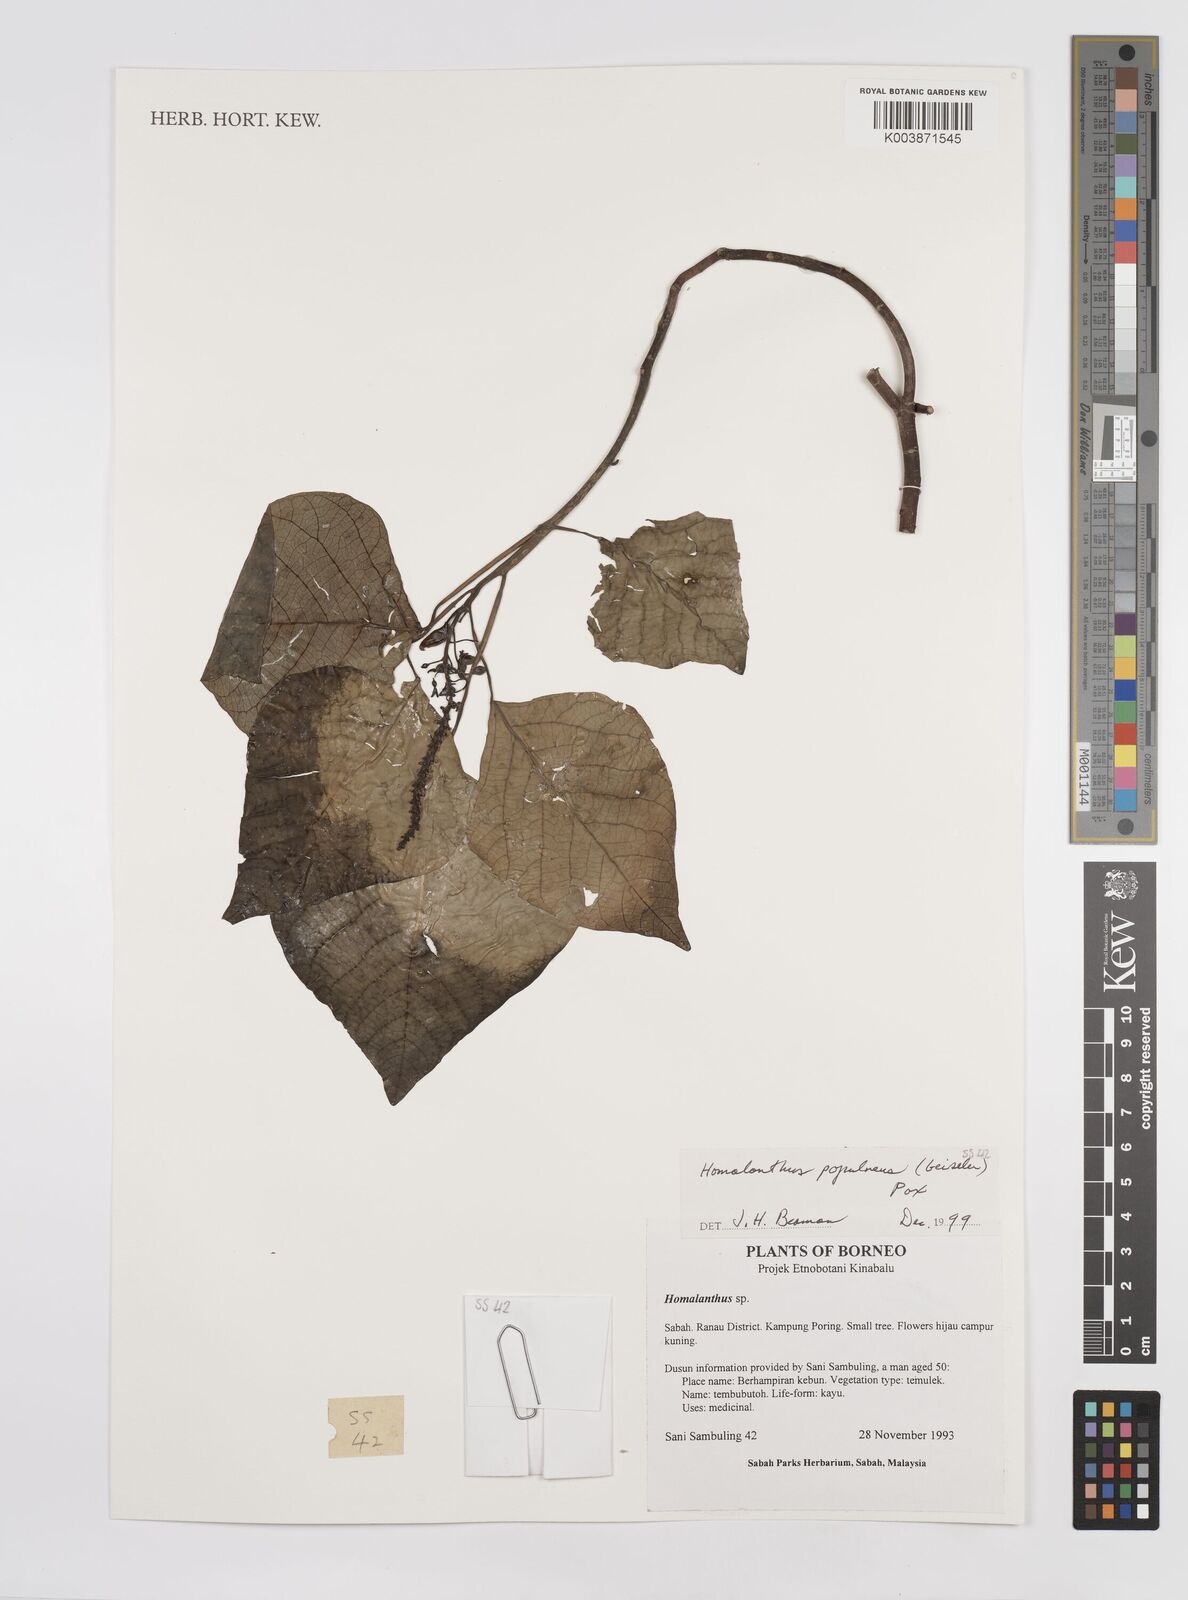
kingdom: Plantae
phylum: Tracheophyta
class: Magnoliopsida
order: Malpighiales
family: Euphorbiaceae
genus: Homalanthus
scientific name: Homalanthus populneus
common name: Spurge
